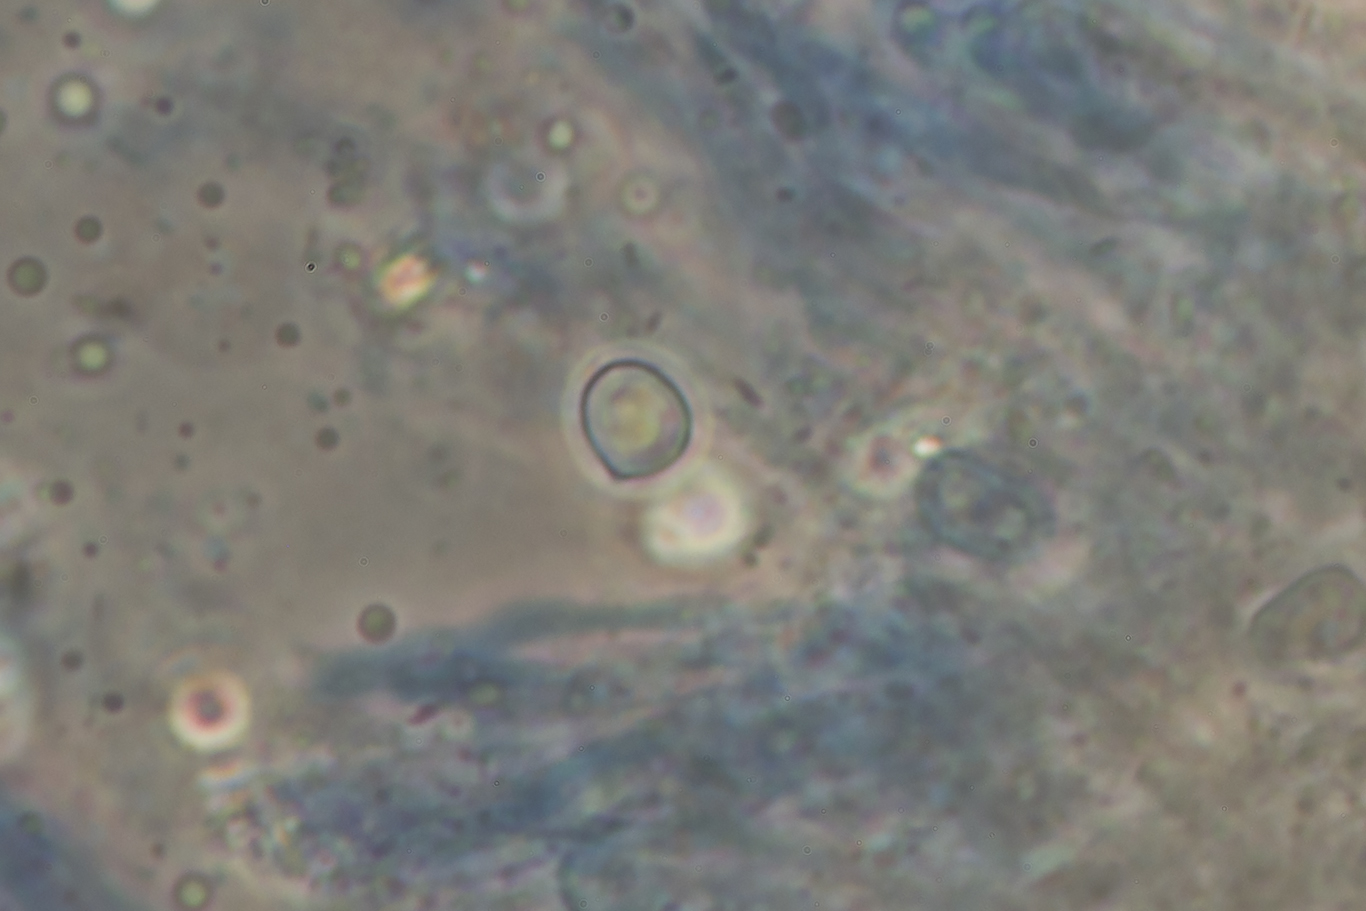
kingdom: Fungi
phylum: Basidiomycota
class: Agaricomycetes
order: Agaricales
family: Clavariaceae
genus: Clavaria
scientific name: Clavaria flavostellifera
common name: stjernegul køllesvamp
